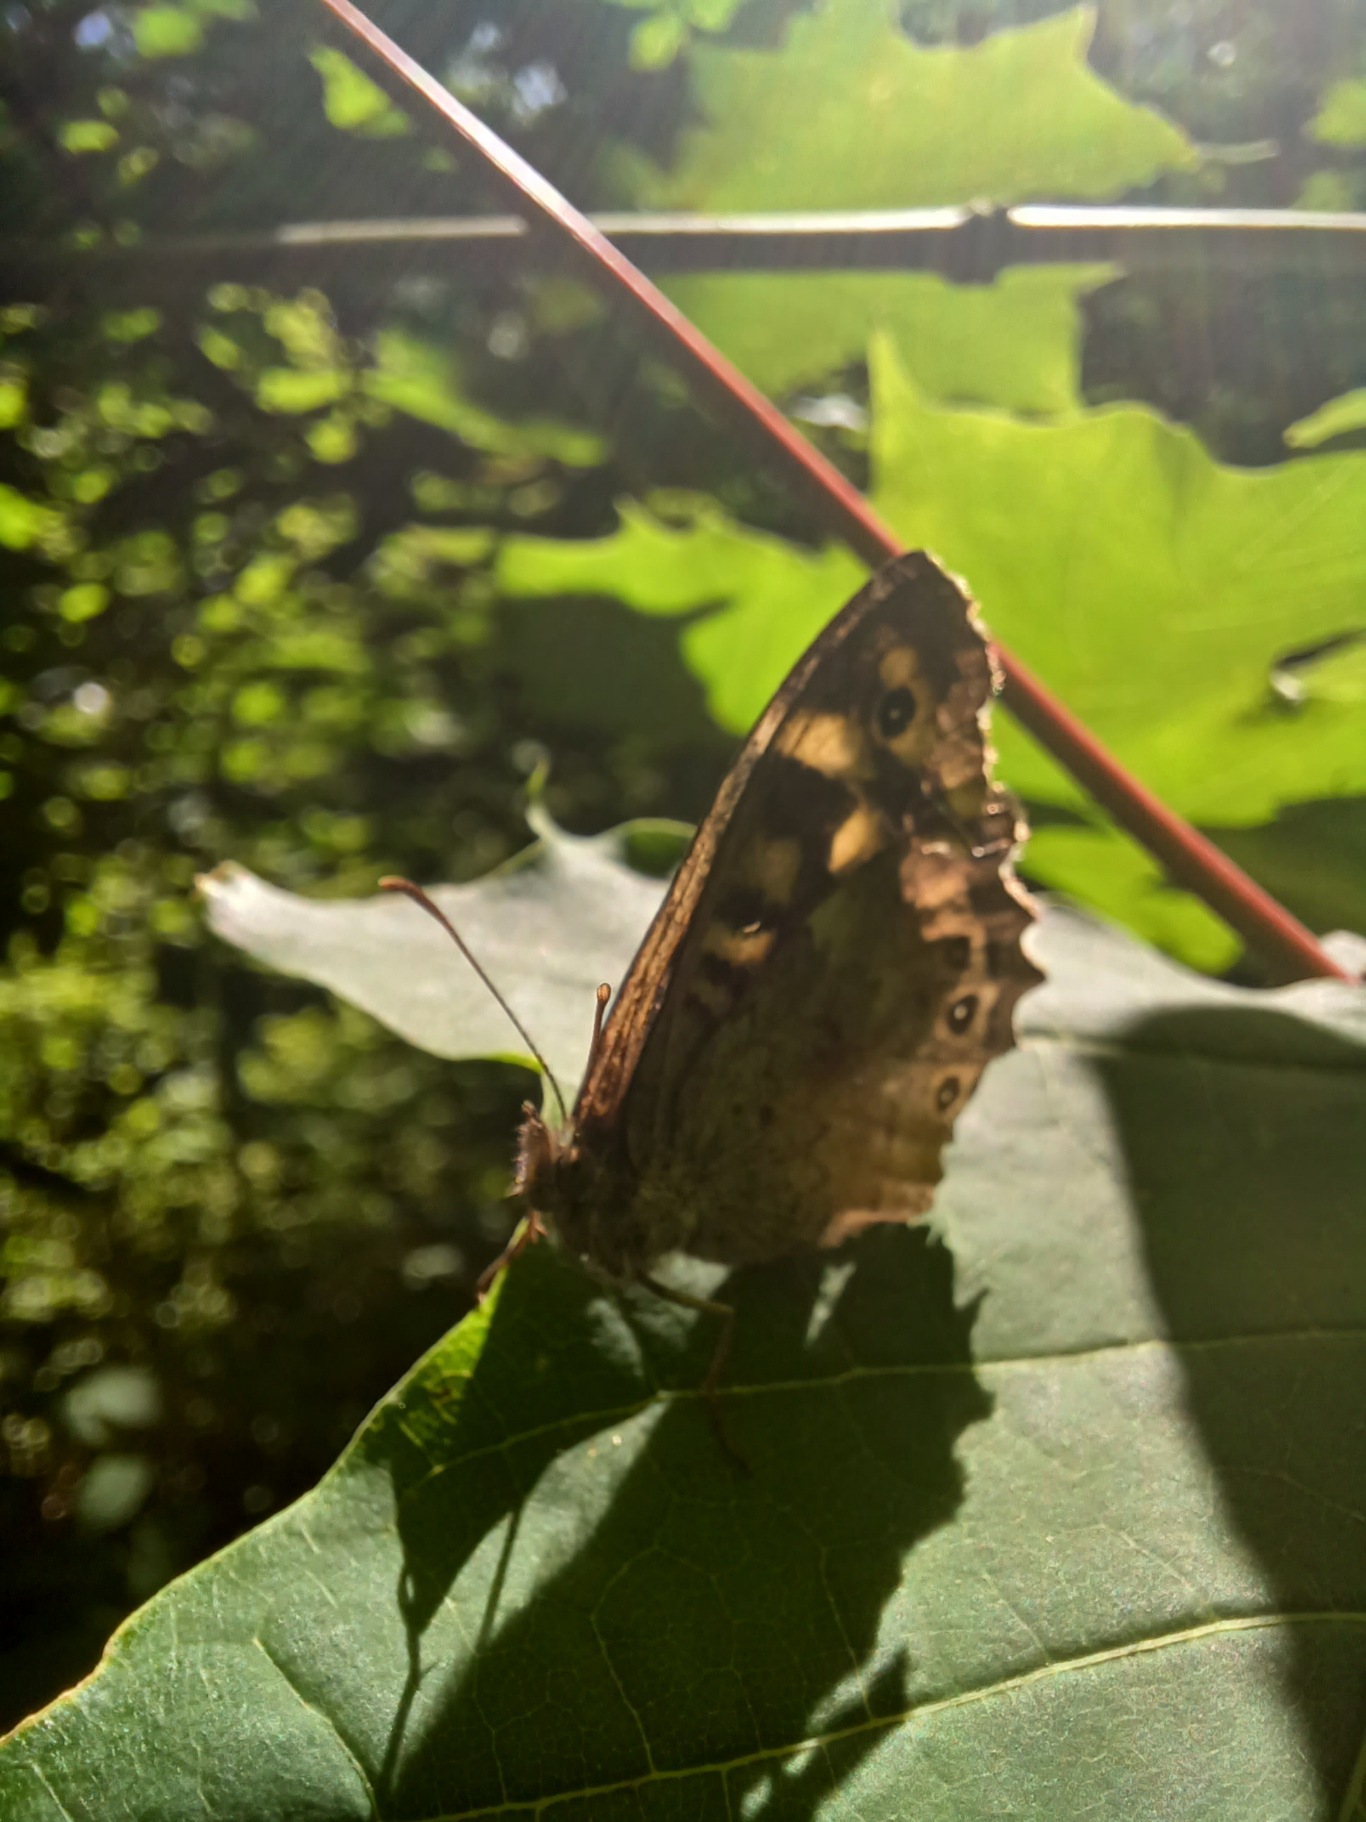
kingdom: Animalia
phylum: Arthropoda
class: Insecta
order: Lepidoptera
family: Nymphalidae
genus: Pararge
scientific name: Pararge aegeria
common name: Skovrandøje
